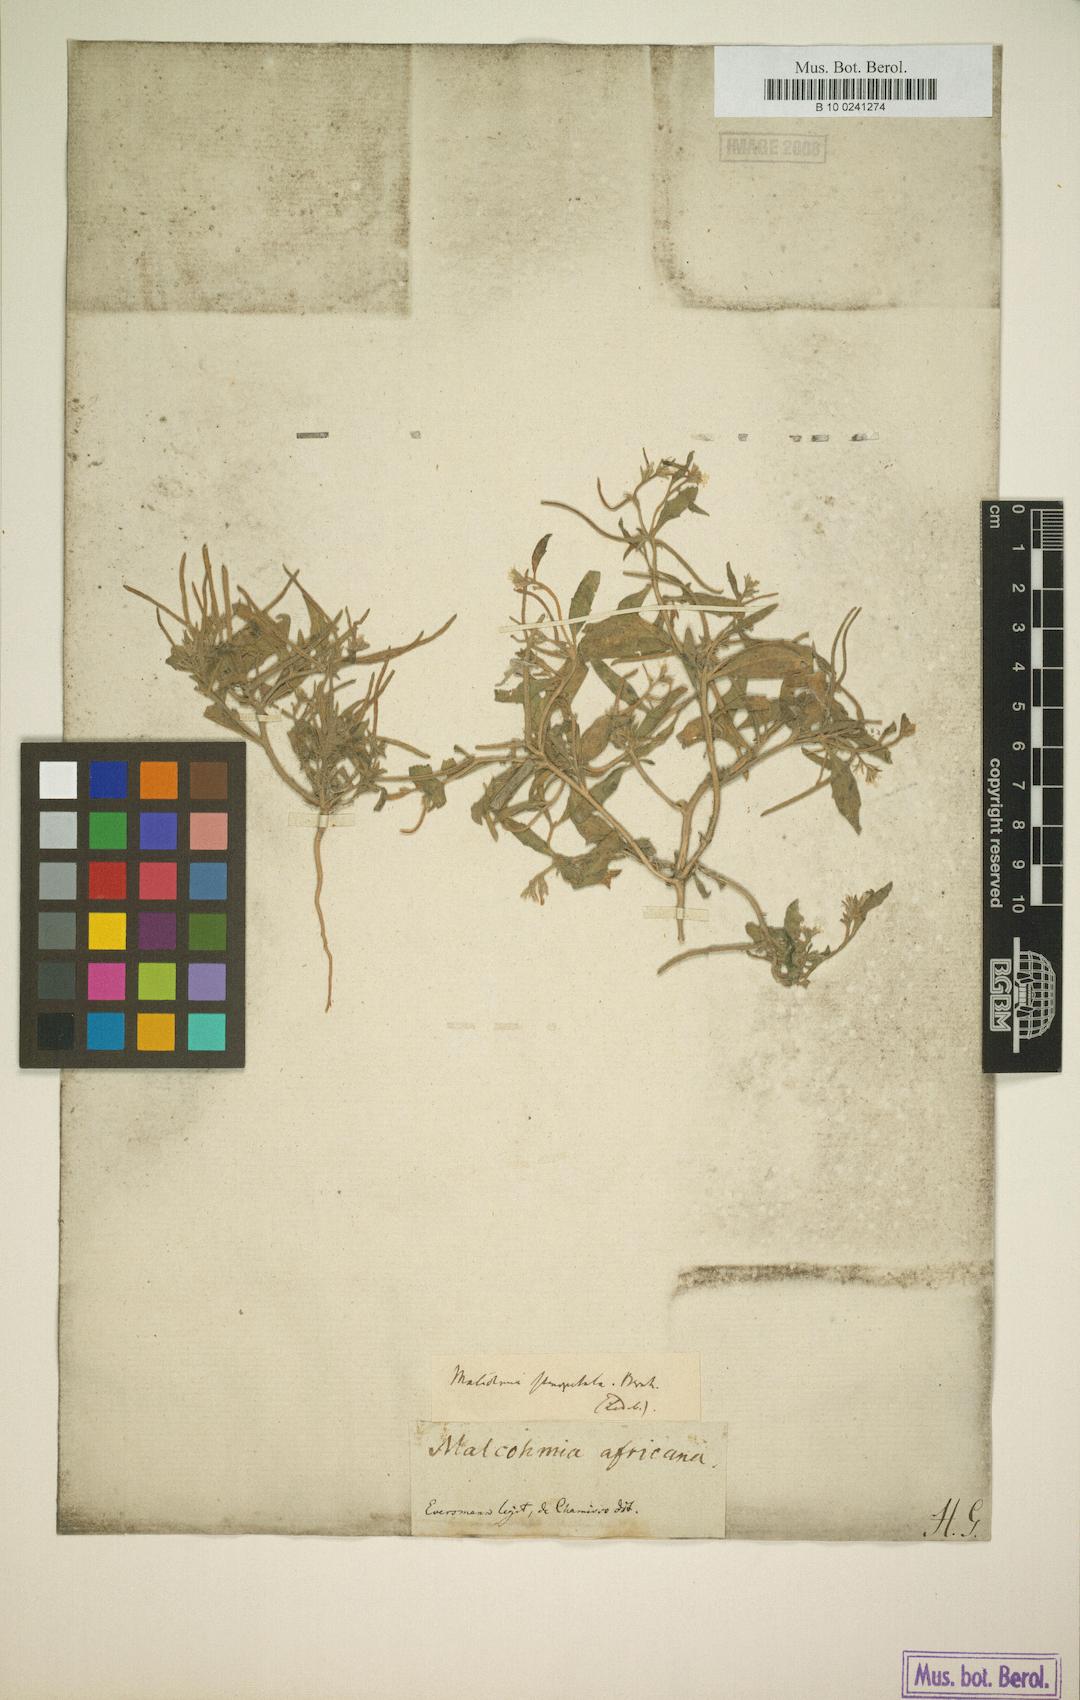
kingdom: Plantae
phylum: Tracheophyta
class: Magnoliopsida
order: Brassicales
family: Brassicaceae
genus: Malcolmia
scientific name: Malcolmia africana
